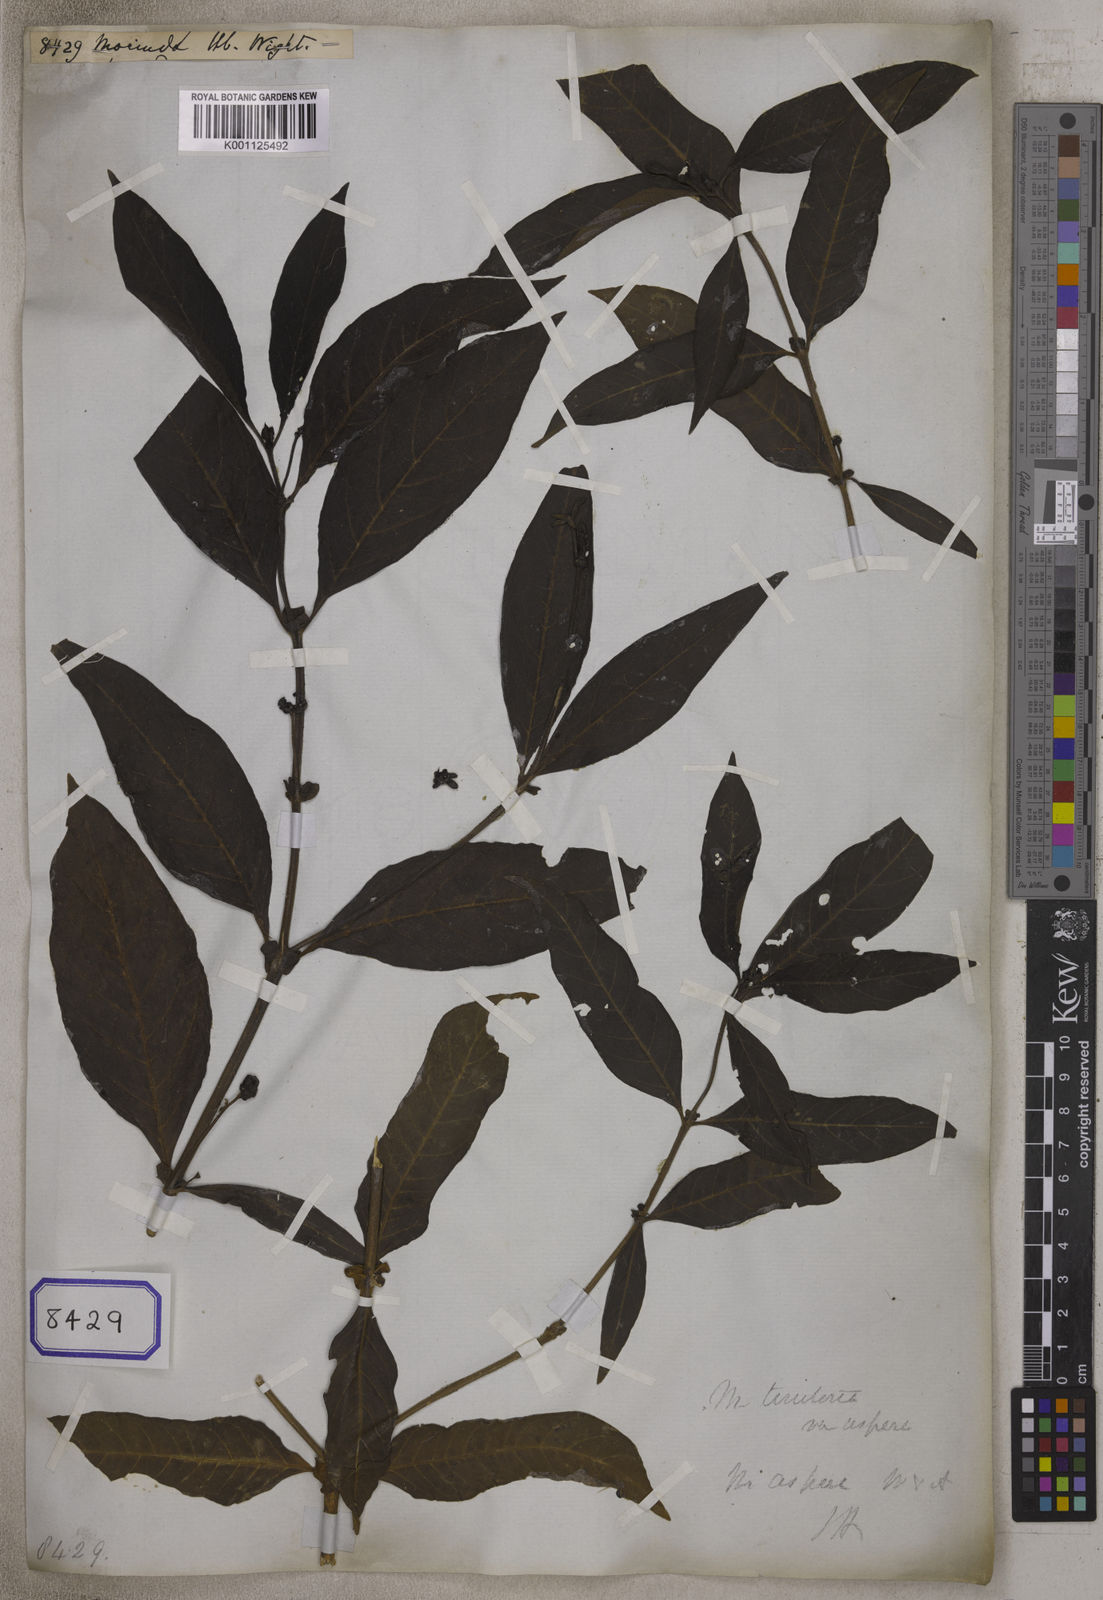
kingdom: Plantae
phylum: Tracheophyta
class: Magnoliopsida
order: Gentianales
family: Rubiaceae
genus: Morinda
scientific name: Morinda
